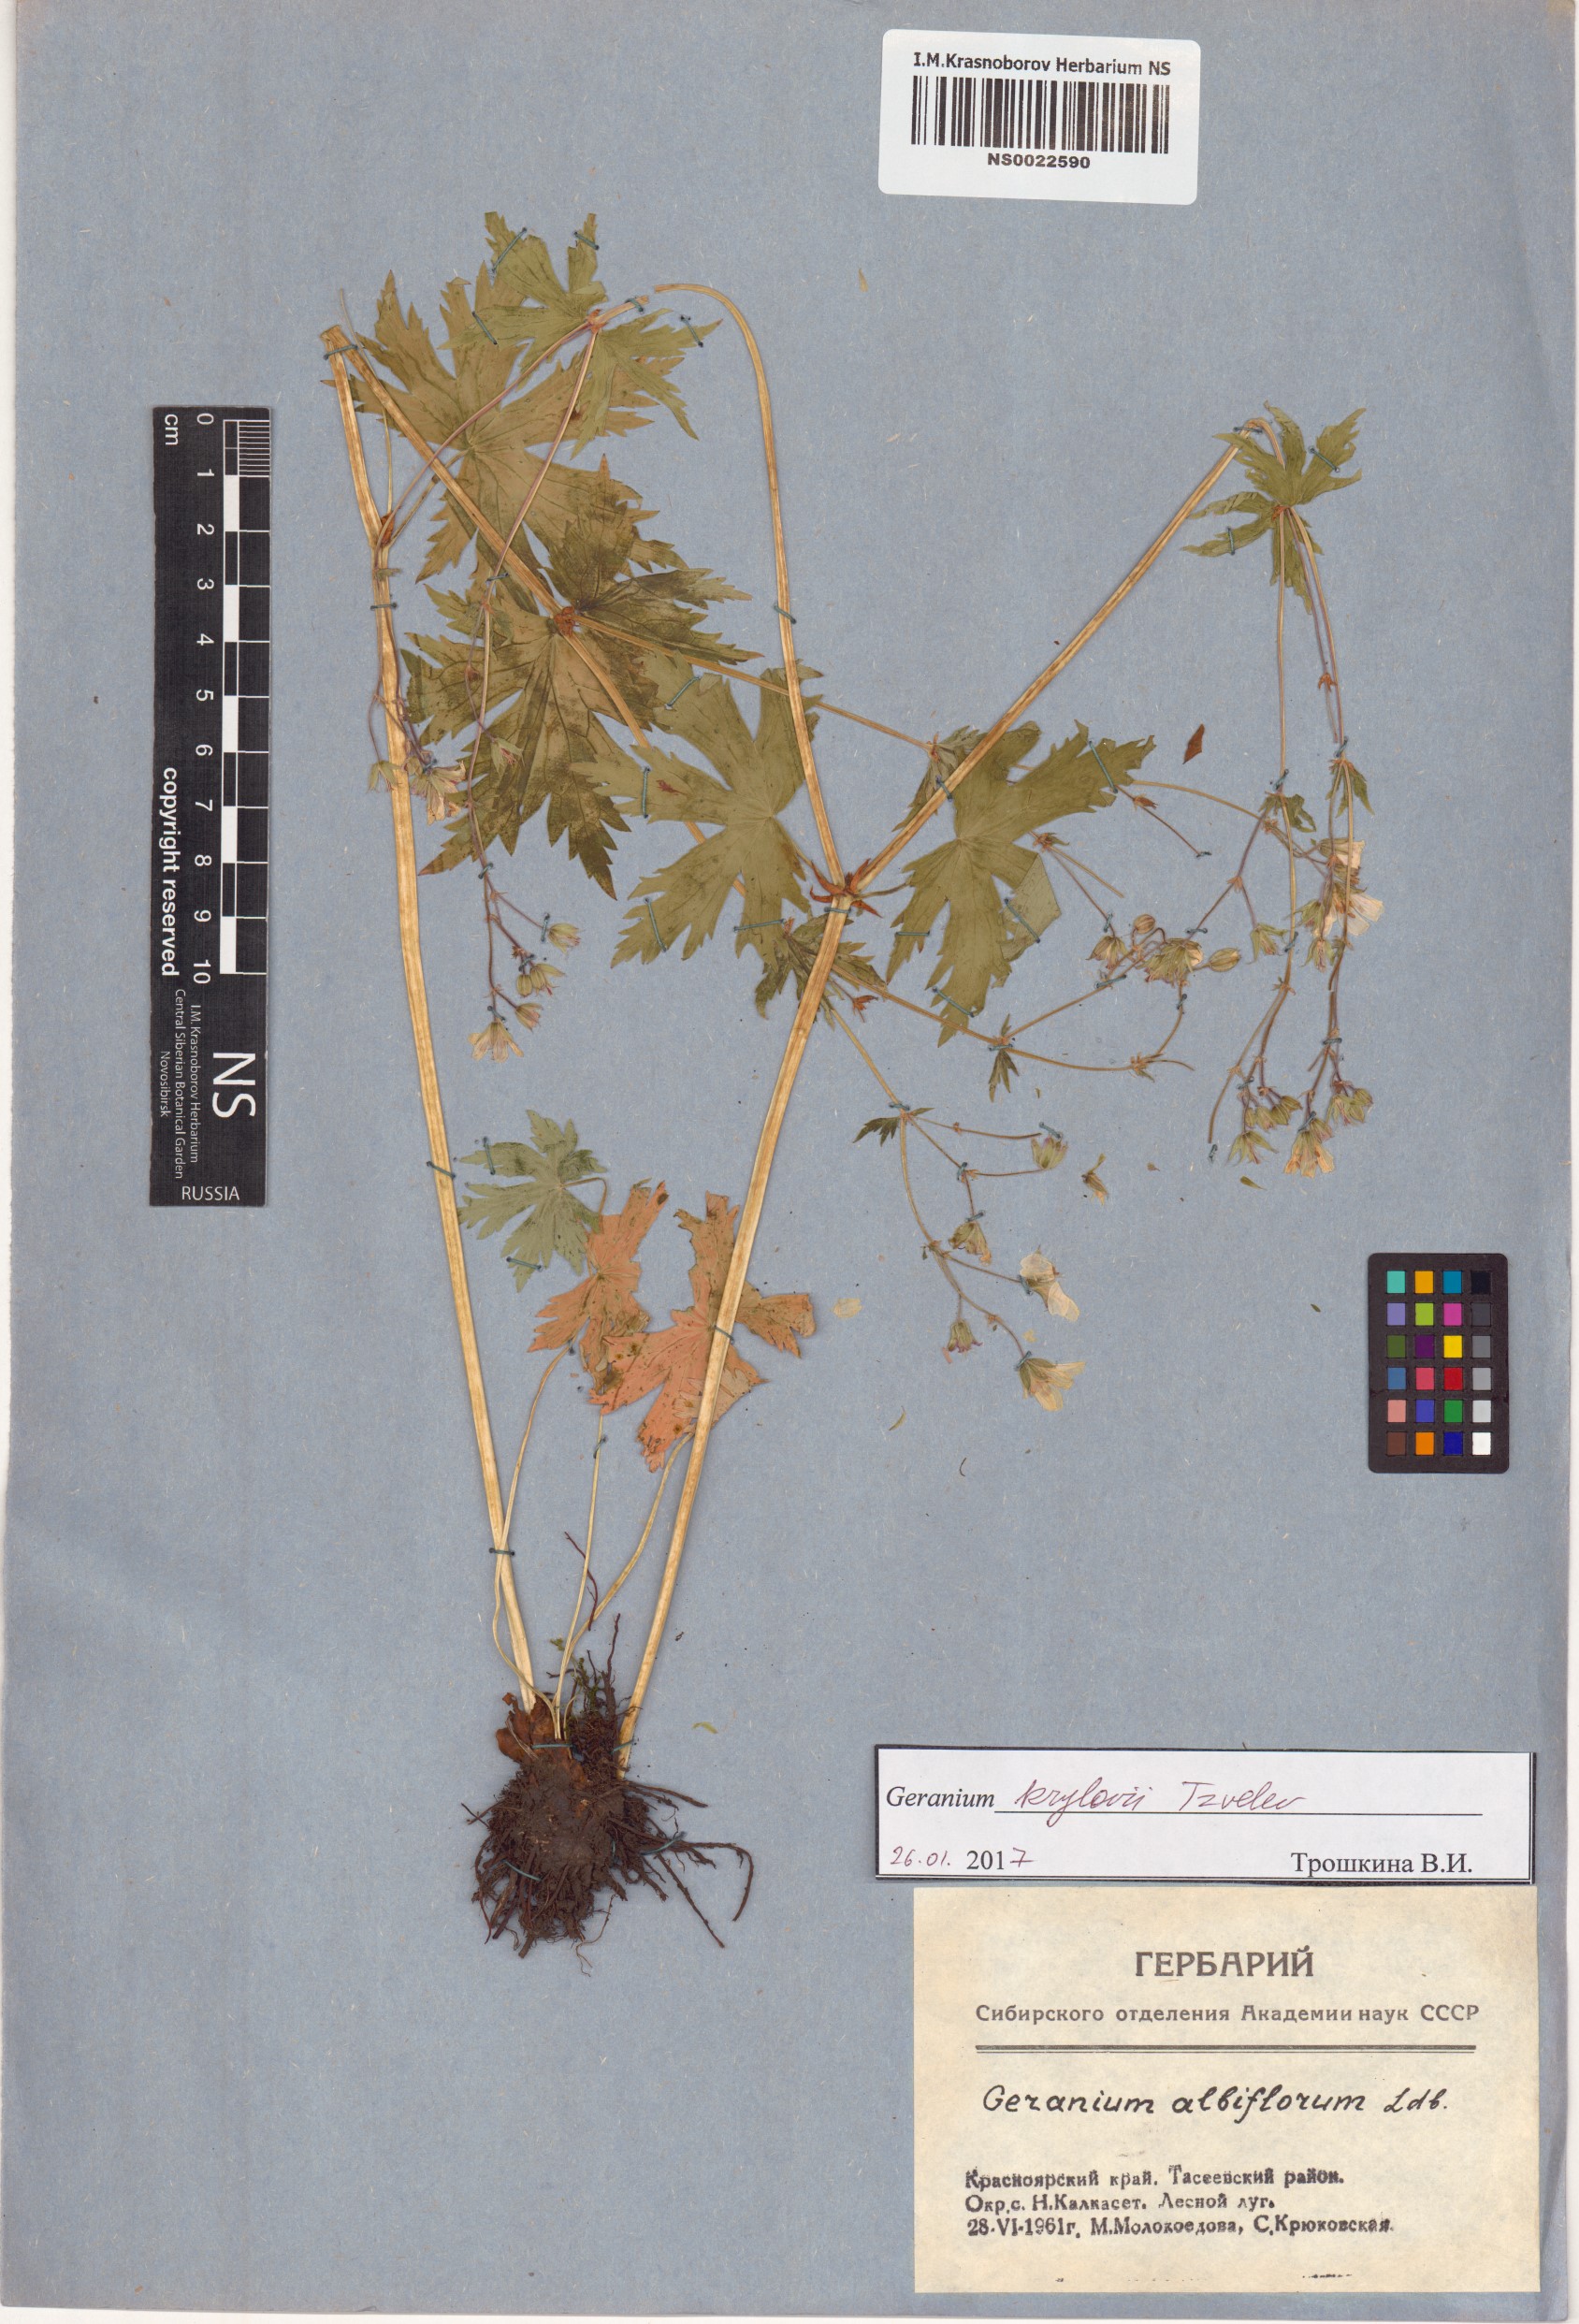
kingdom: Plantae
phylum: Tracheophyta
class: Magnoliopsida
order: Geraniales
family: Geraniaceae
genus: Geranium
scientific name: Geranium sylvaticum
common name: Wood crane's-bill
